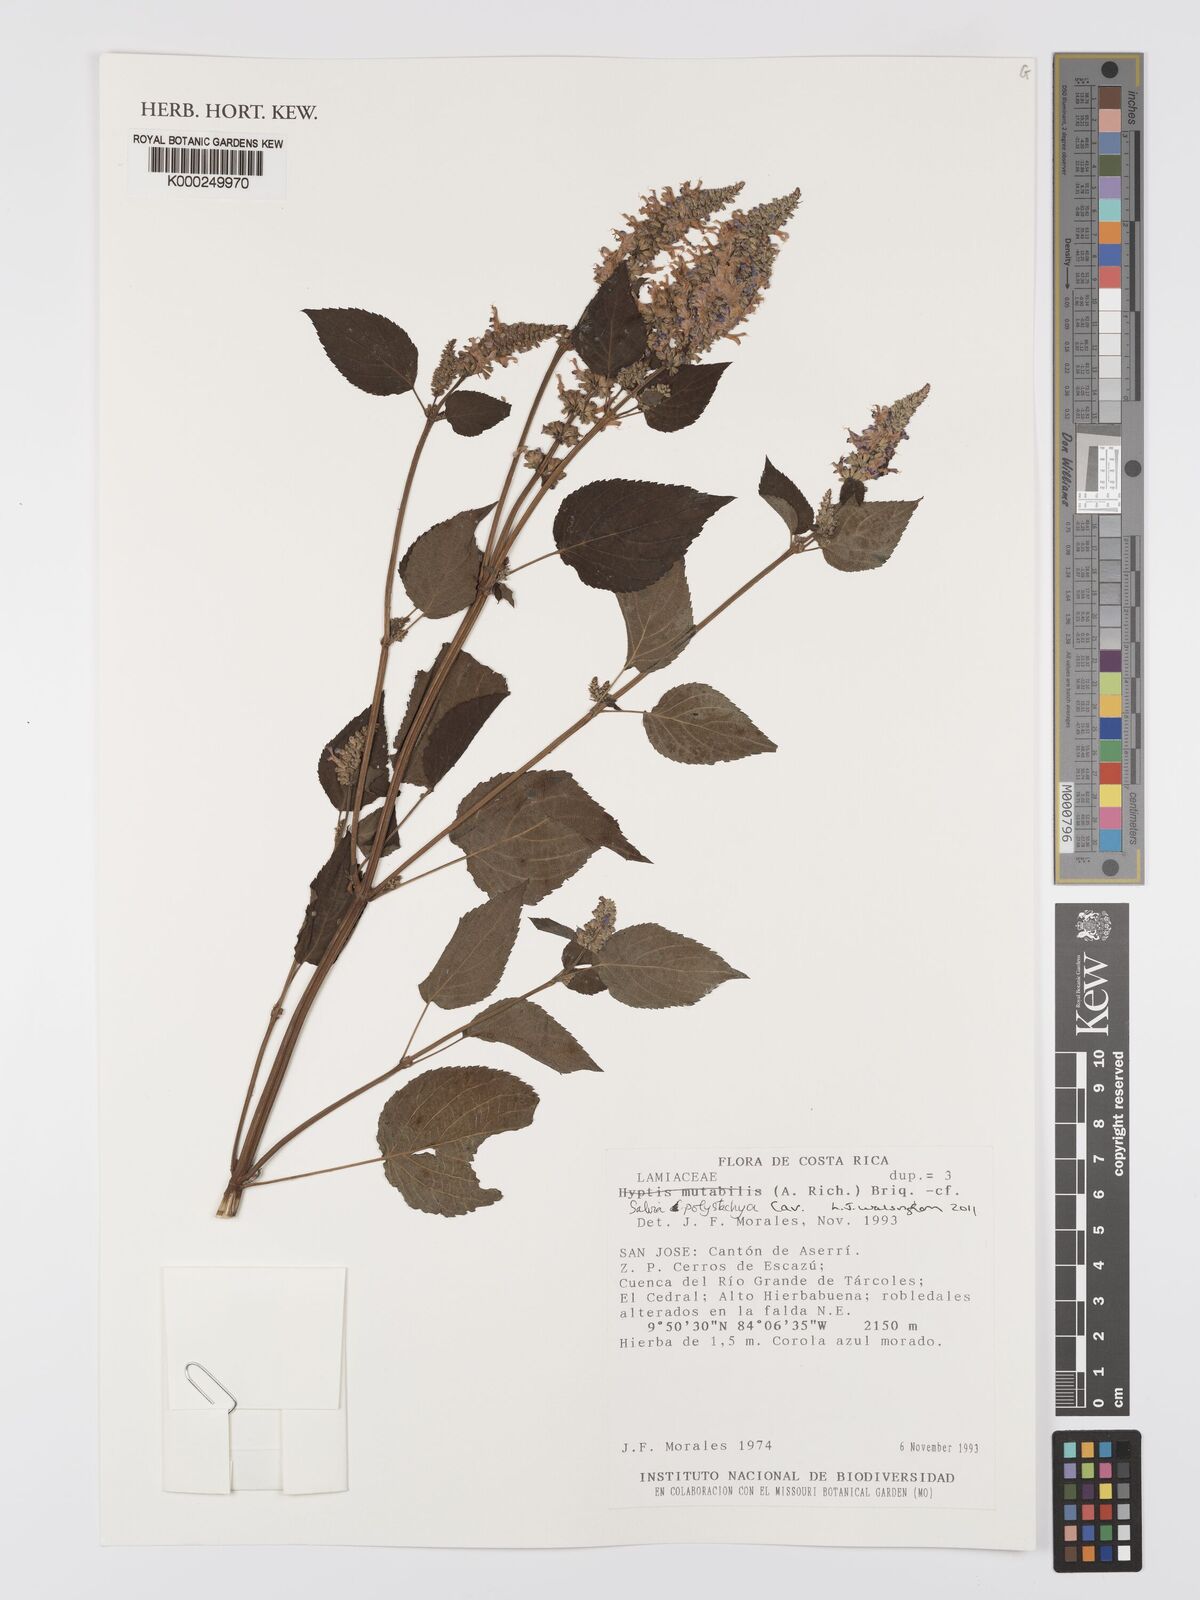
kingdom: Plantae
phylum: Tracheophyta
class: Magnoliopsida
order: Lamiales
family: Lamiaceae
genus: Salvia
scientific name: Salvia polystachia
